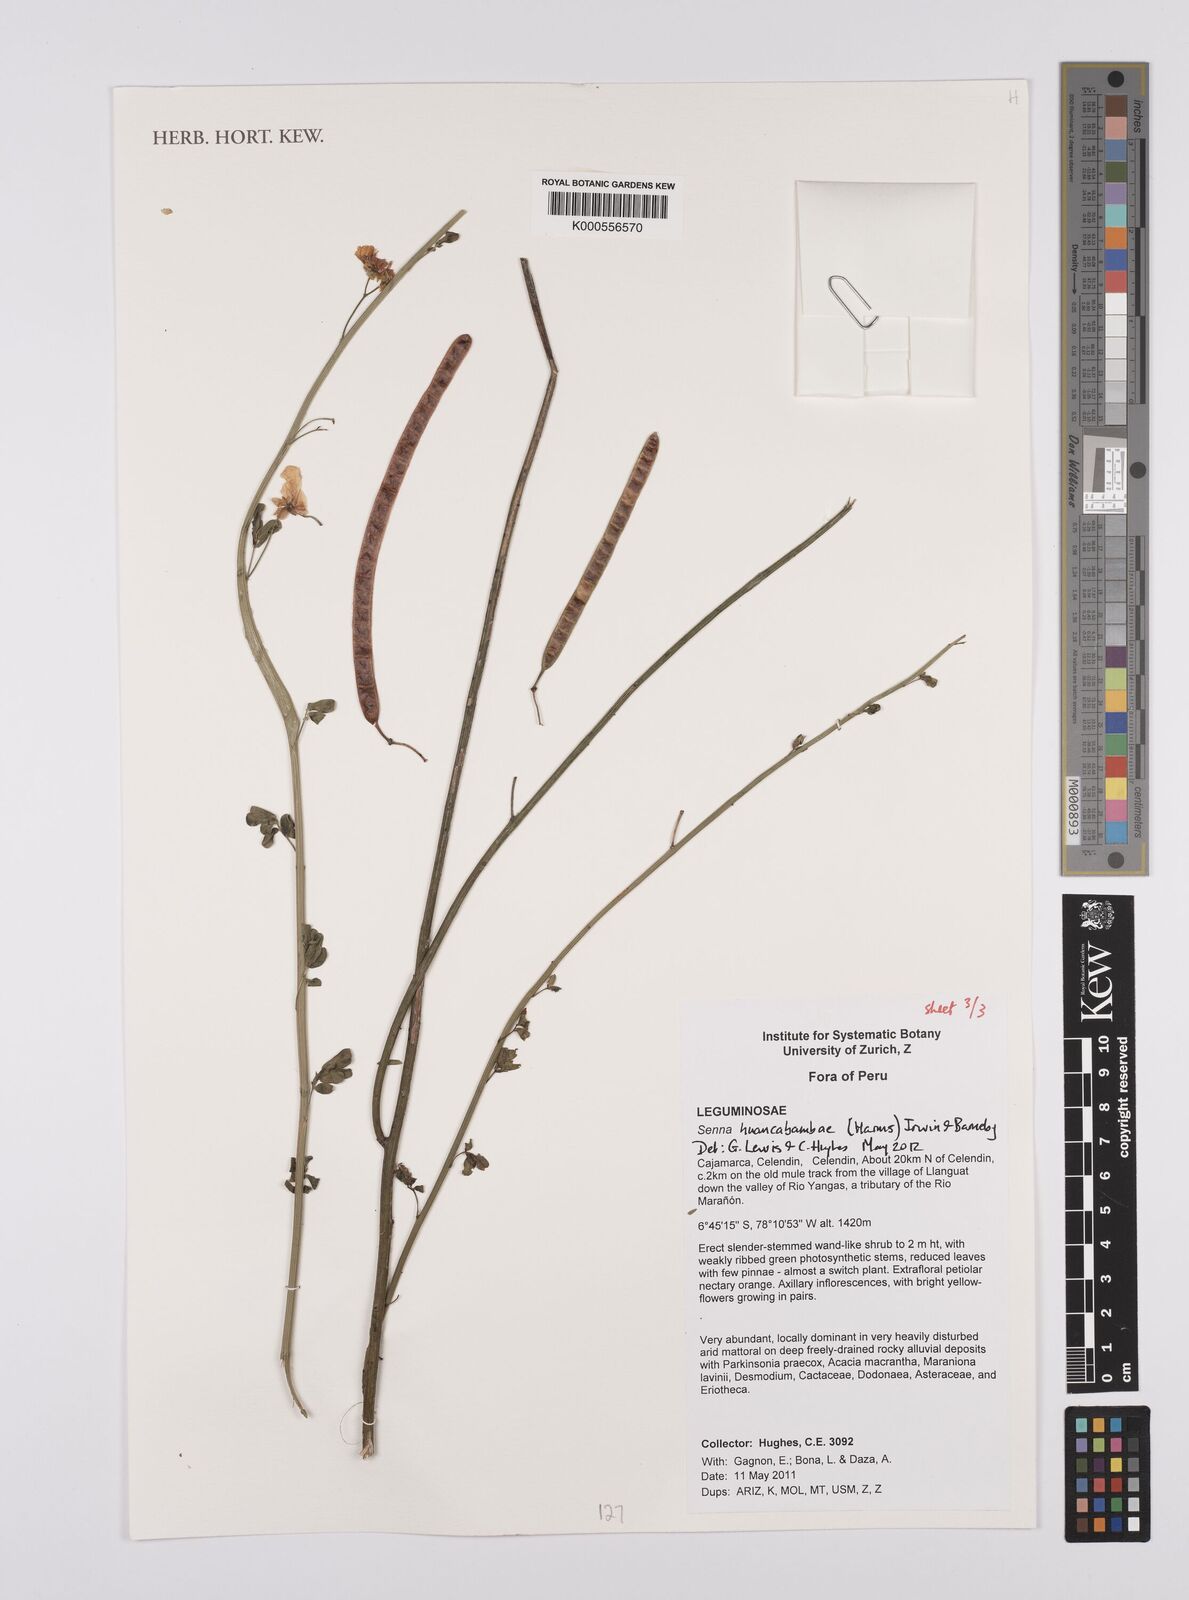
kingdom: Plantae
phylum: Tracheophyta
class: Magnoliopsida
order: Fabales
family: Fabaceae
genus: Senna
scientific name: Senna huancabambae
